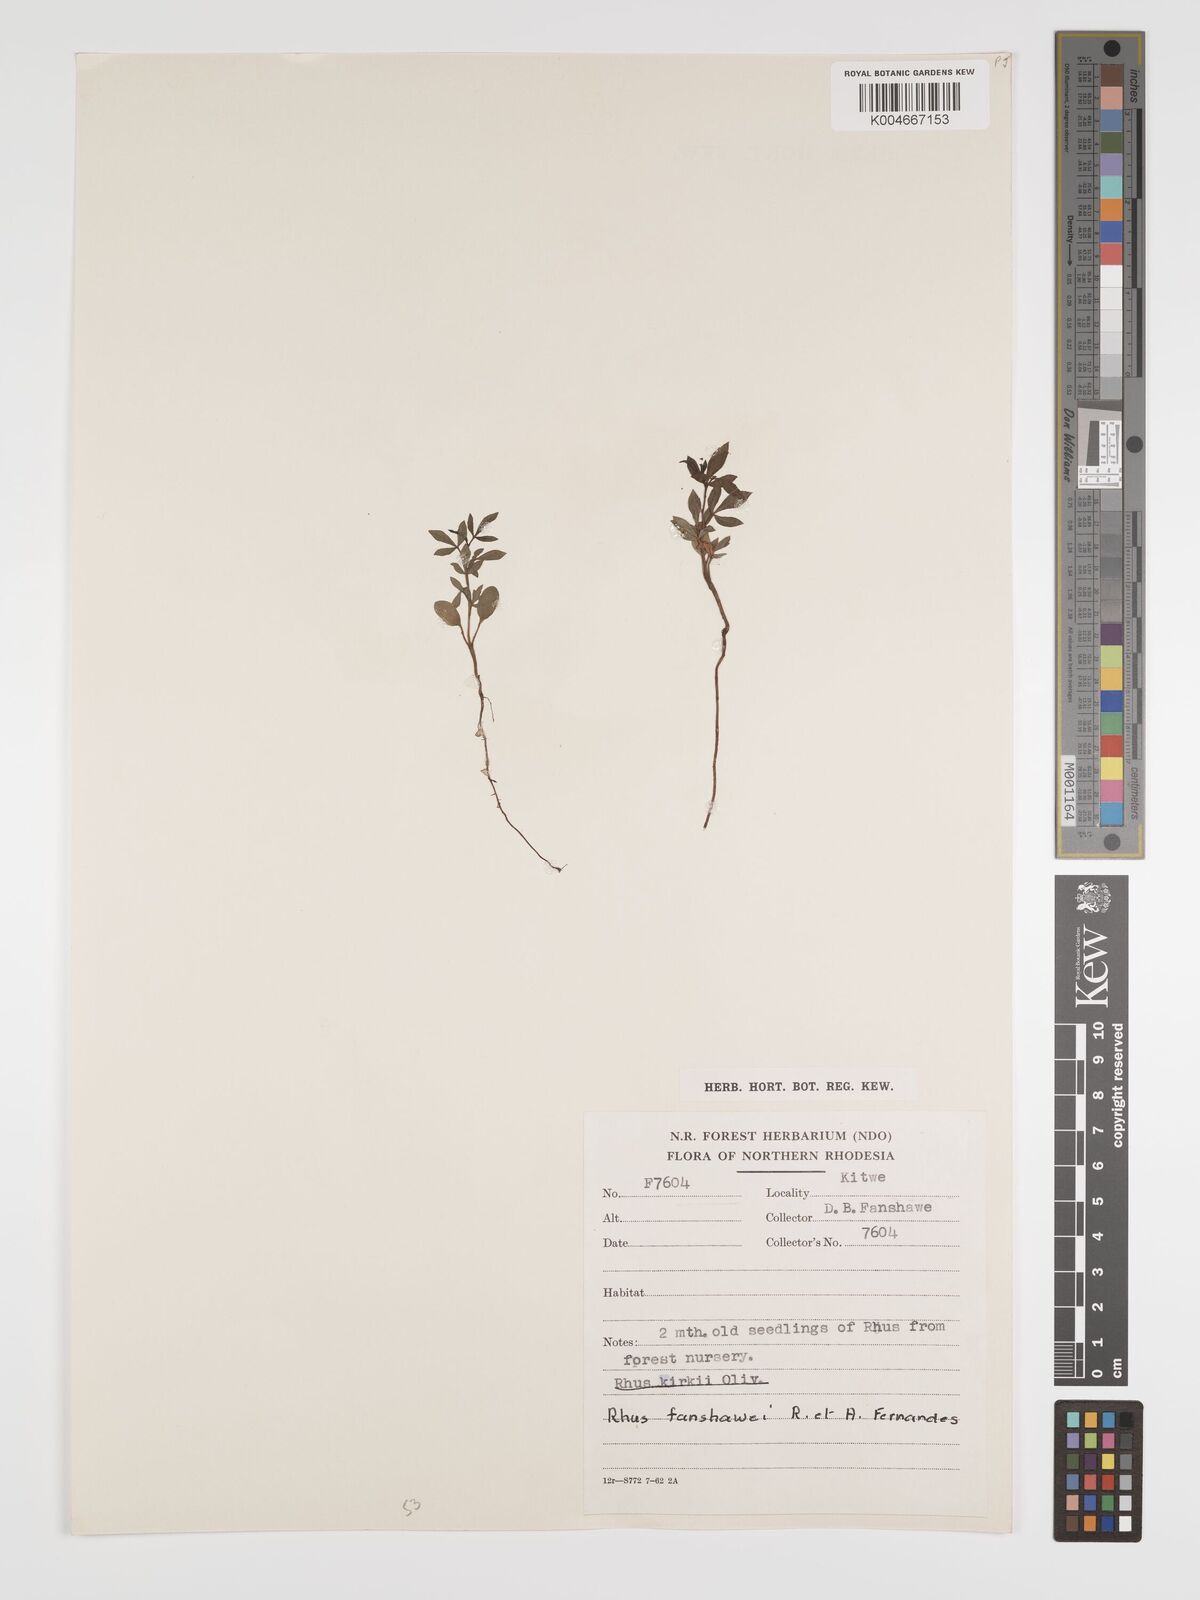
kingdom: Plantae
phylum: Tracheophyta
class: Magnoliopsida
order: Sapindales
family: Anacardiaceae
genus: Searsia
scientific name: Searsia magalismontana
